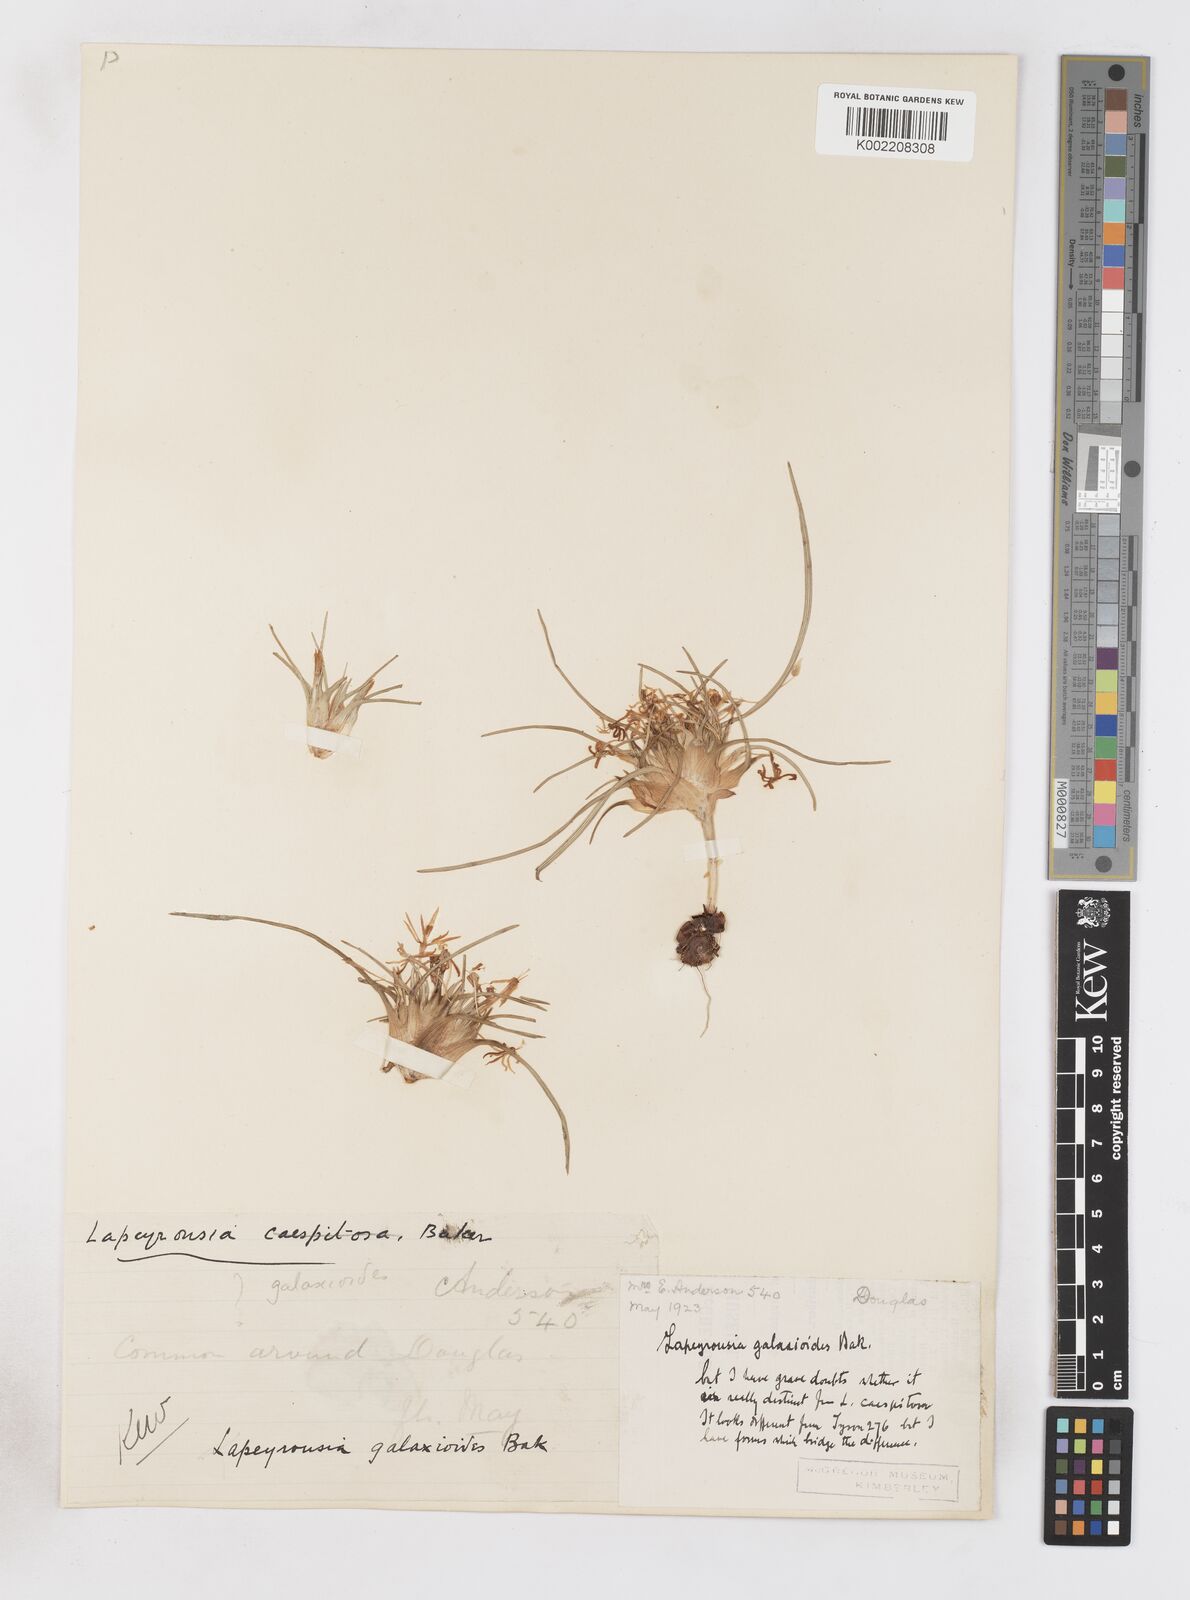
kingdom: Plantae
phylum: Tracheophyta
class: Liliopsida
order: Asparagales
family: Iridaceae
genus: Lapeirousia
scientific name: Lapeirousia plicata
